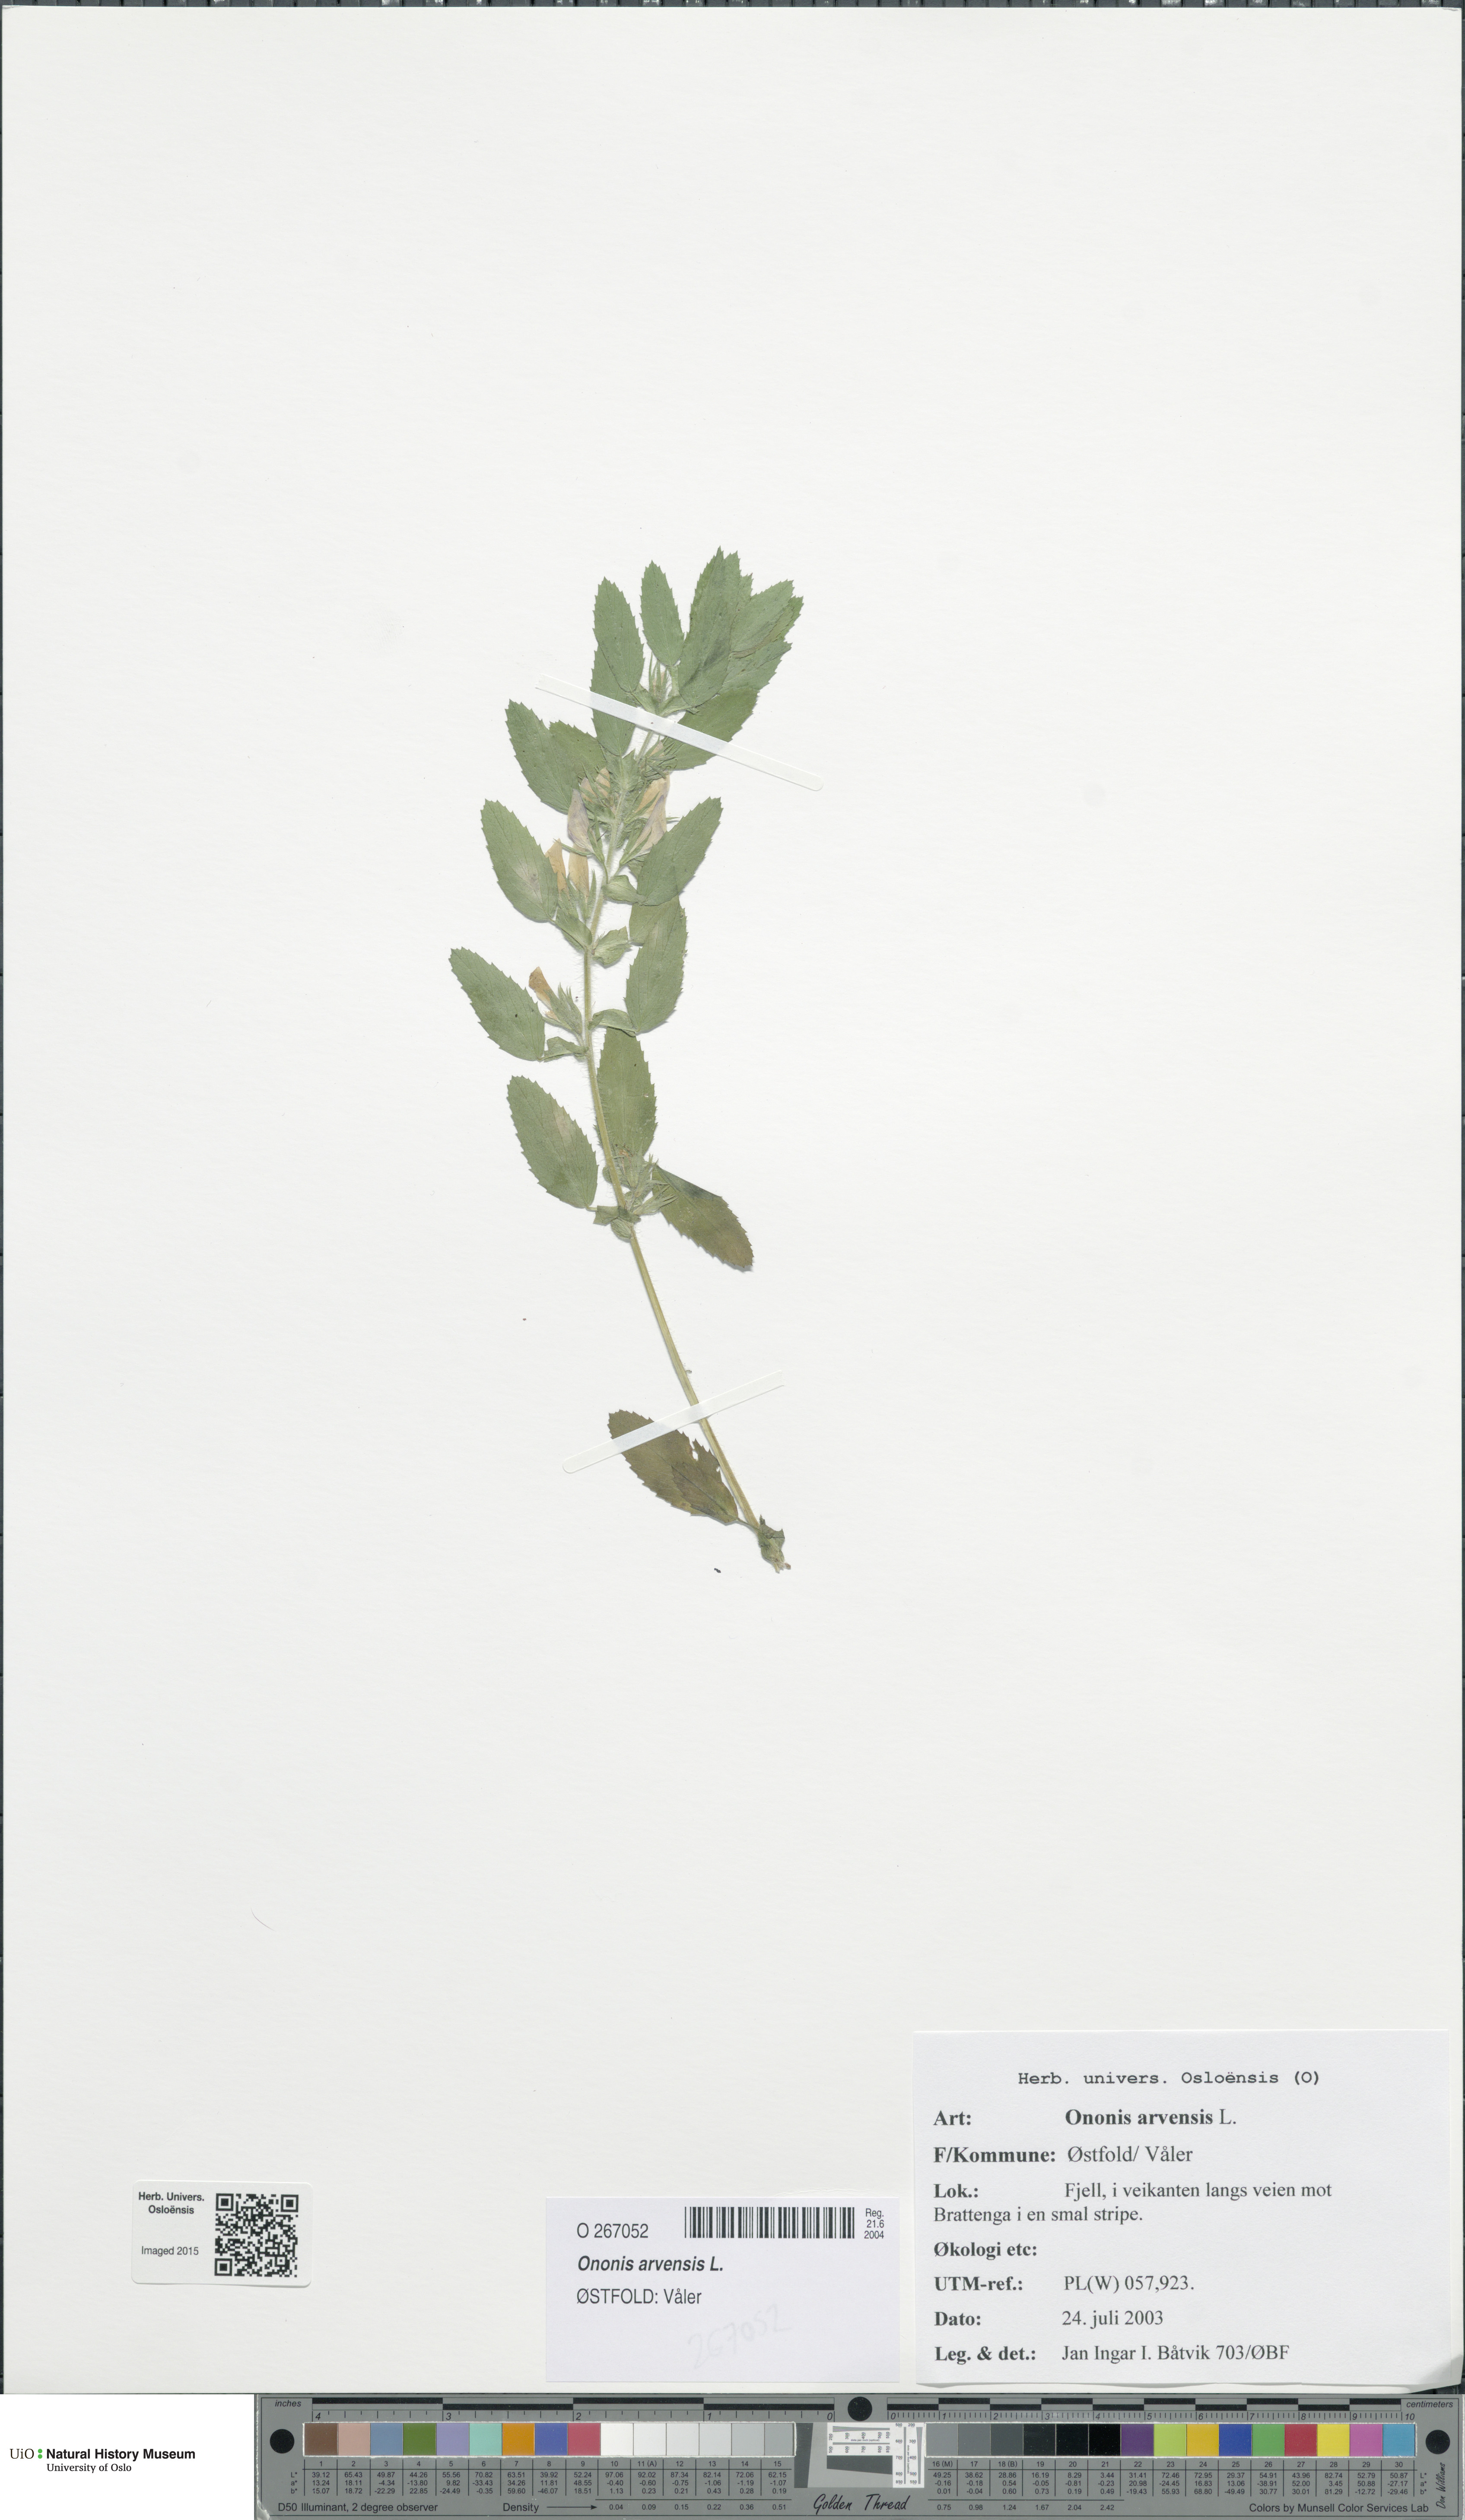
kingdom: Plantae
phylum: Tracheophyta
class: Magnoliopsida
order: Fabales
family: Fabaceae
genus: Ononis
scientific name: Ononis arvensis
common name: Field restharrow
